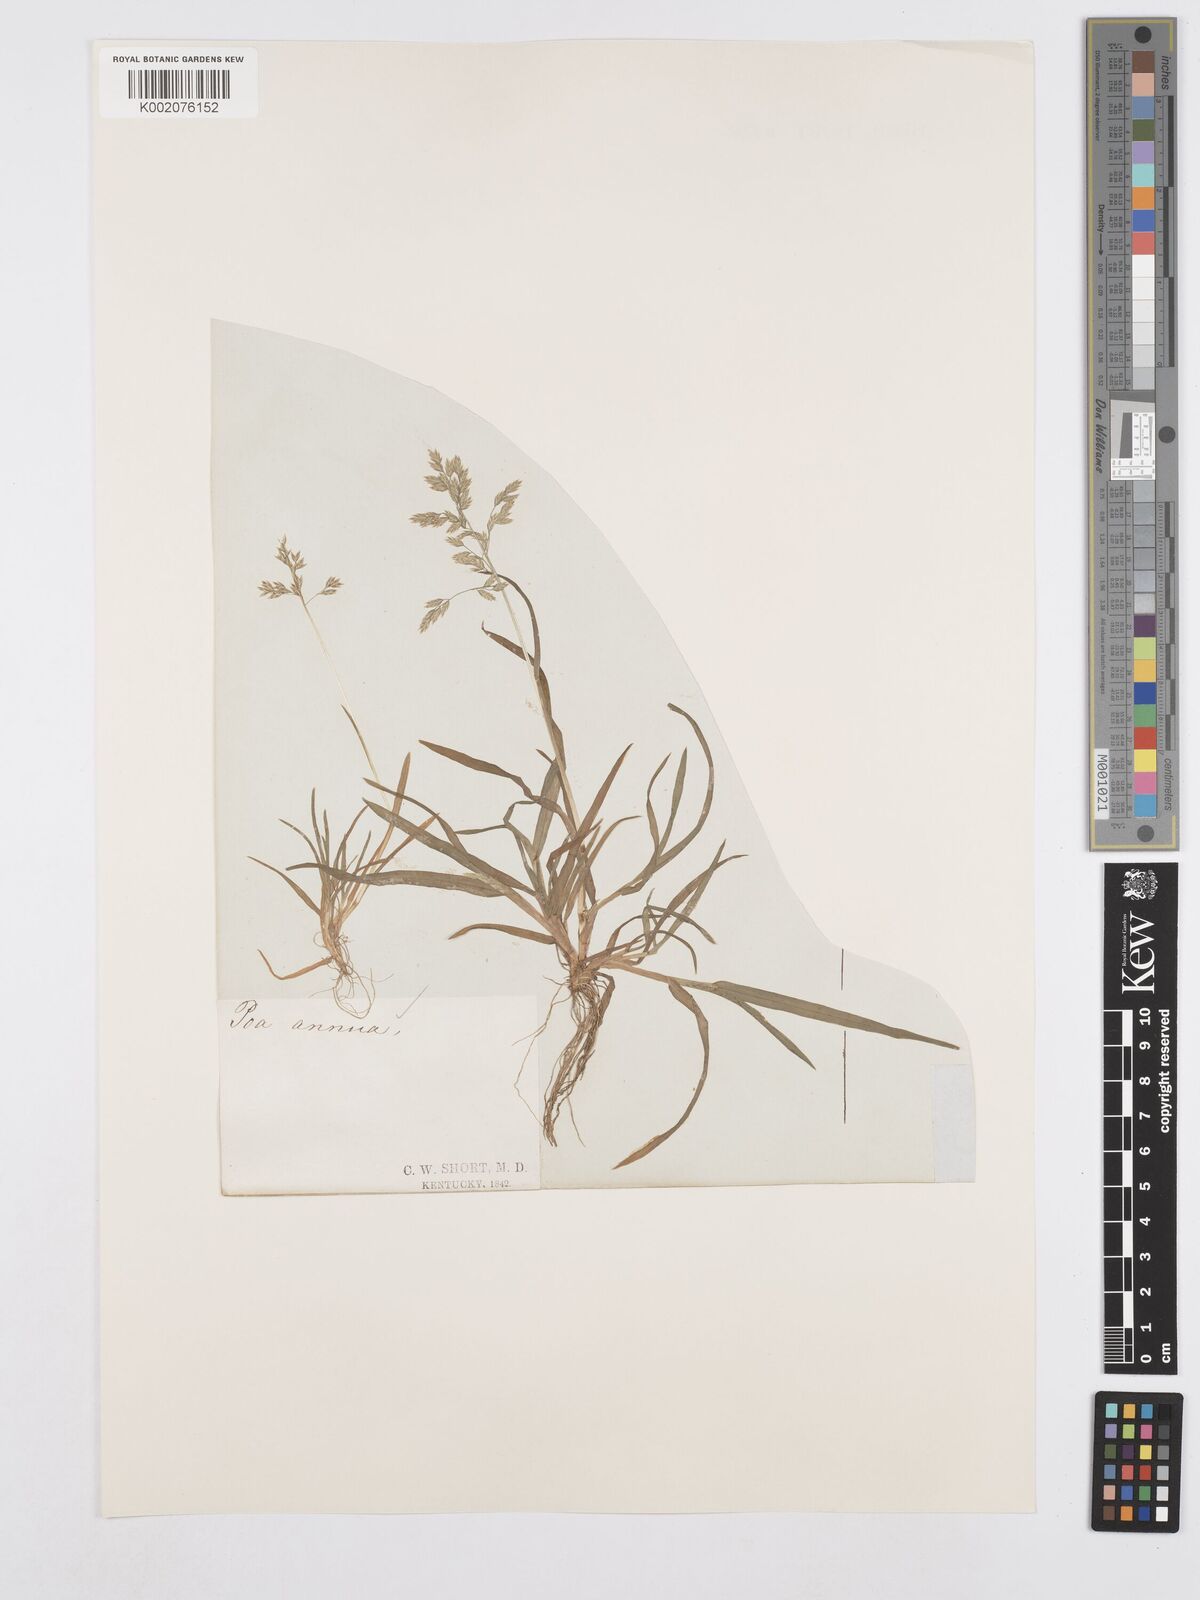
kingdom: Plantae
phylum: Tracheophyta
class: Liliopsida
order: Poales
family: Poaceae
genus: Poa
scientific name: Poa annua
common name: Annual bluegrass
